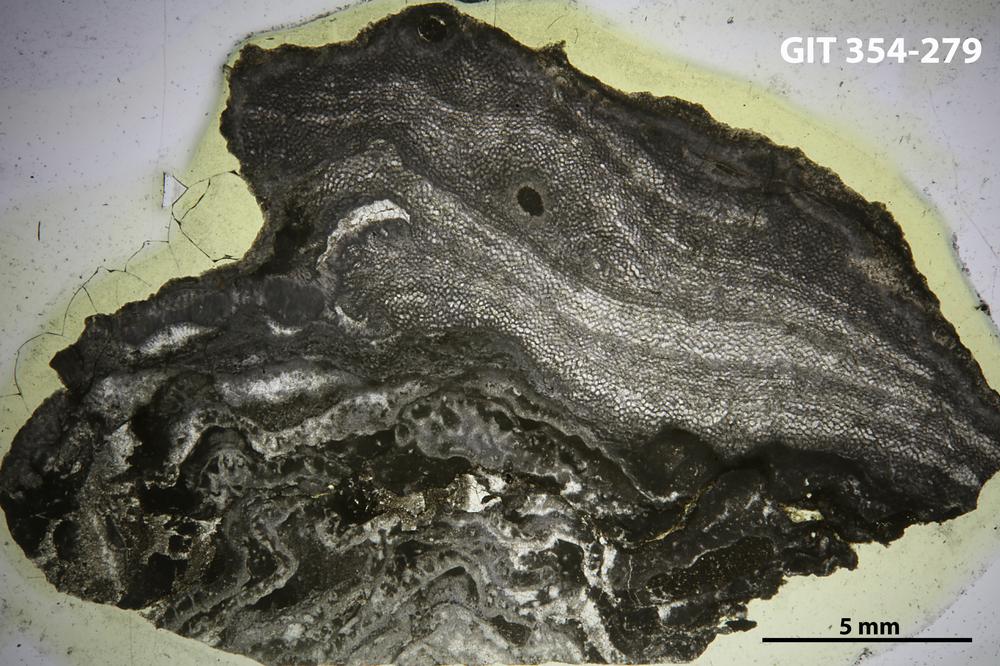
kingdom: Animalia
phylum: Porifera
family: Ecclimadictyidae
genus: Ecclimadictyon
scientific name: Ecclimadictyon Clathrodictyon microvesiculosum
